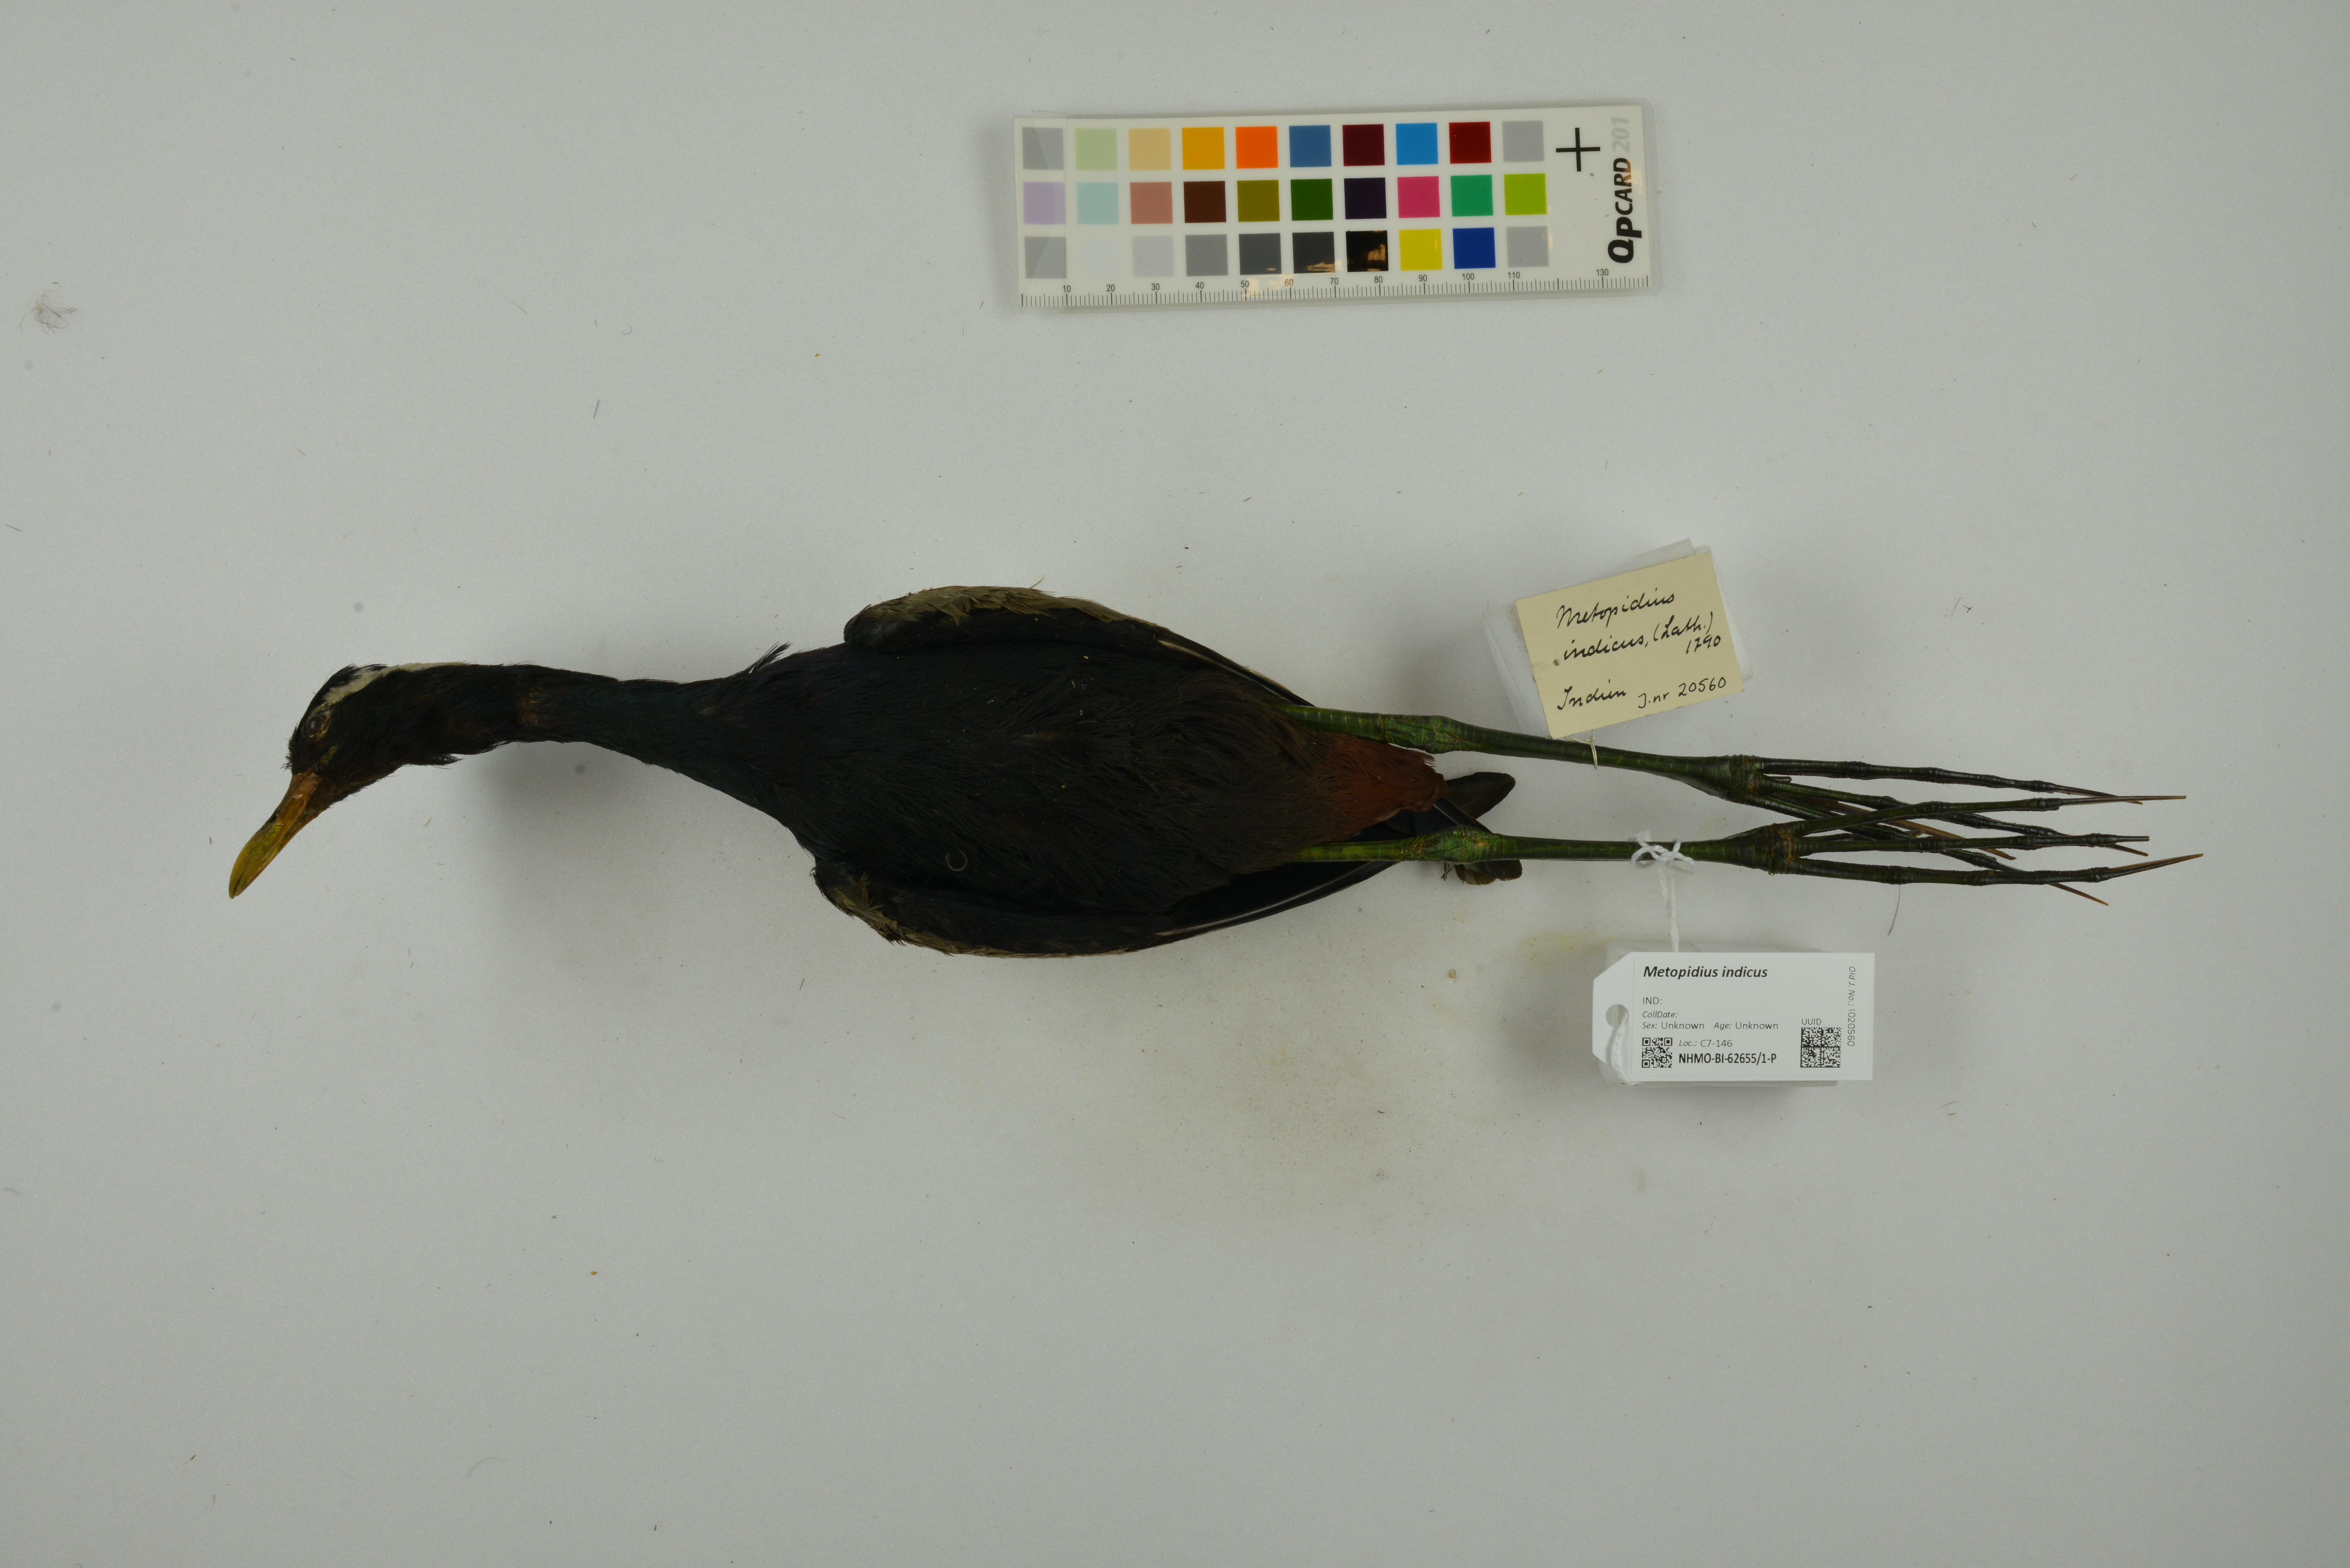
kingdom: Animalia
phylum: Chordata
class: Aves
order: Charadriiformes
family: Jacanidae
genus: Metopidius
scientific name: Metopidius indicus
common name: Bronze-winged jacana
